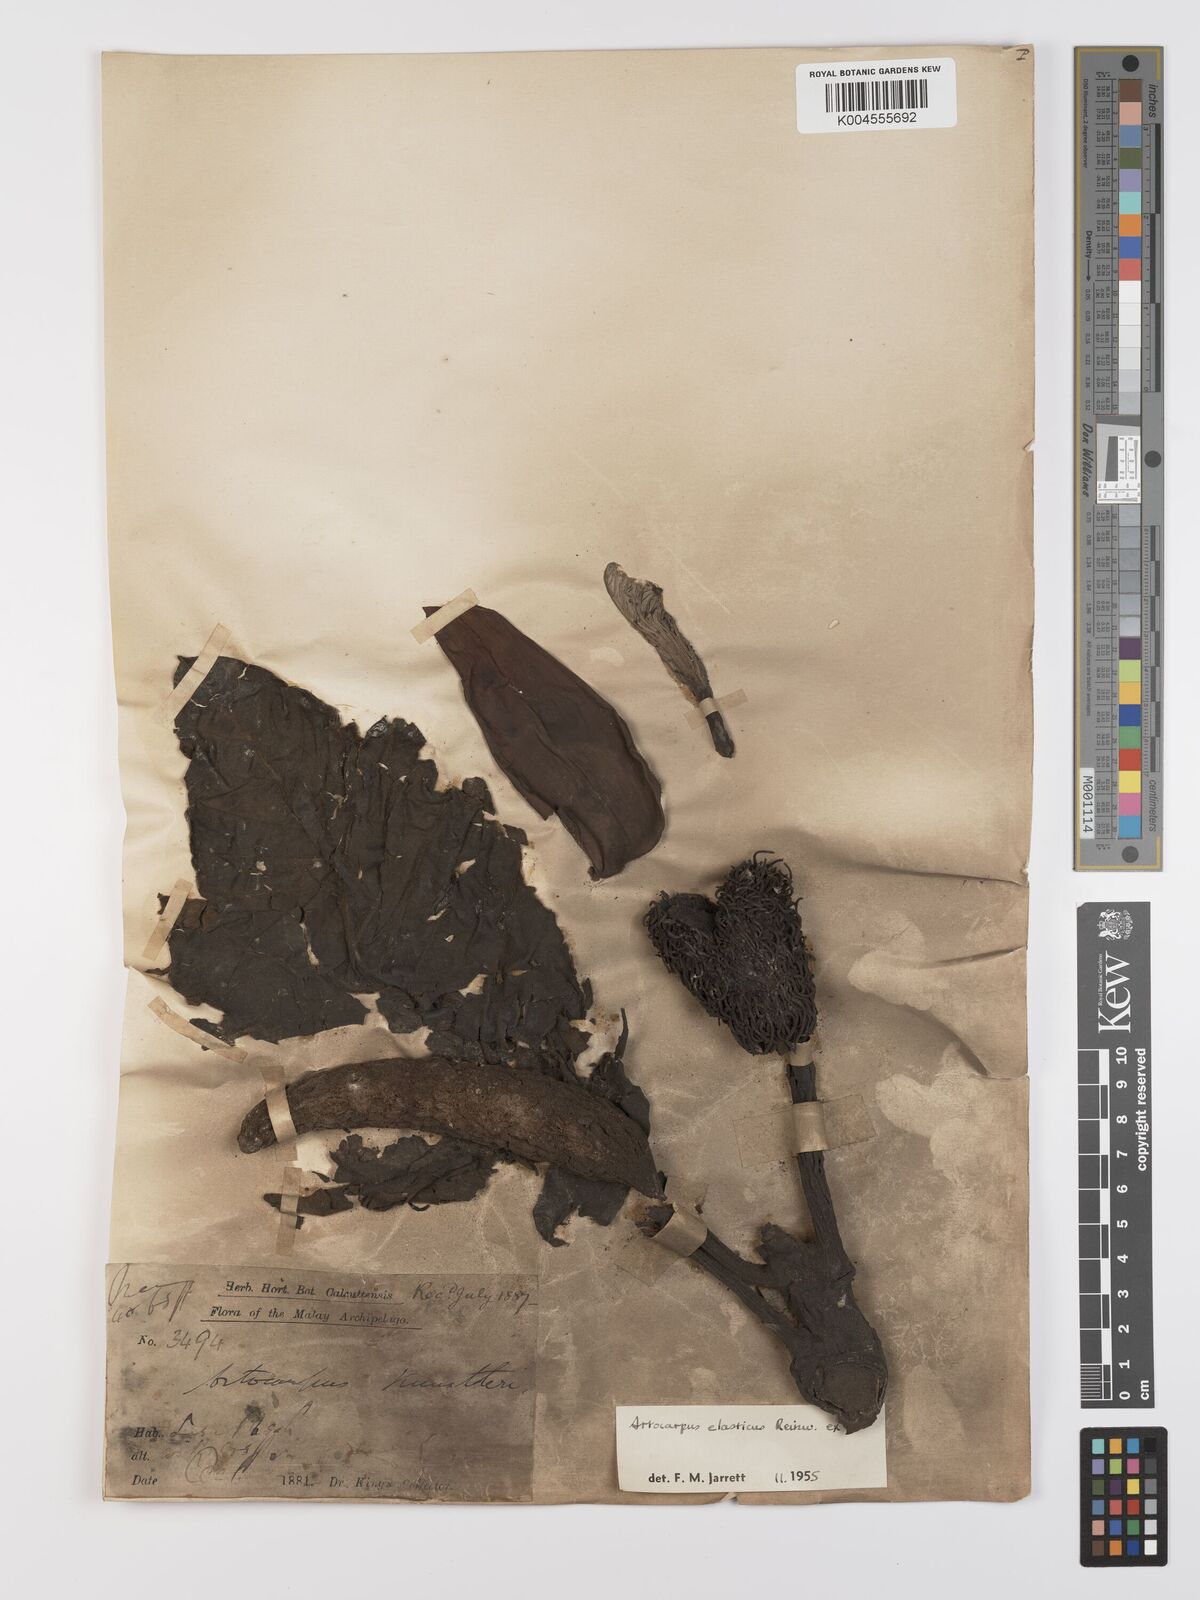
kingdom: Plantae
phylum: Tracheophyta
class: Magnoliopsida
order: Rosales
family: Moraceae
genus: Artocarpus
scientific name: Artocarpus elasticus
